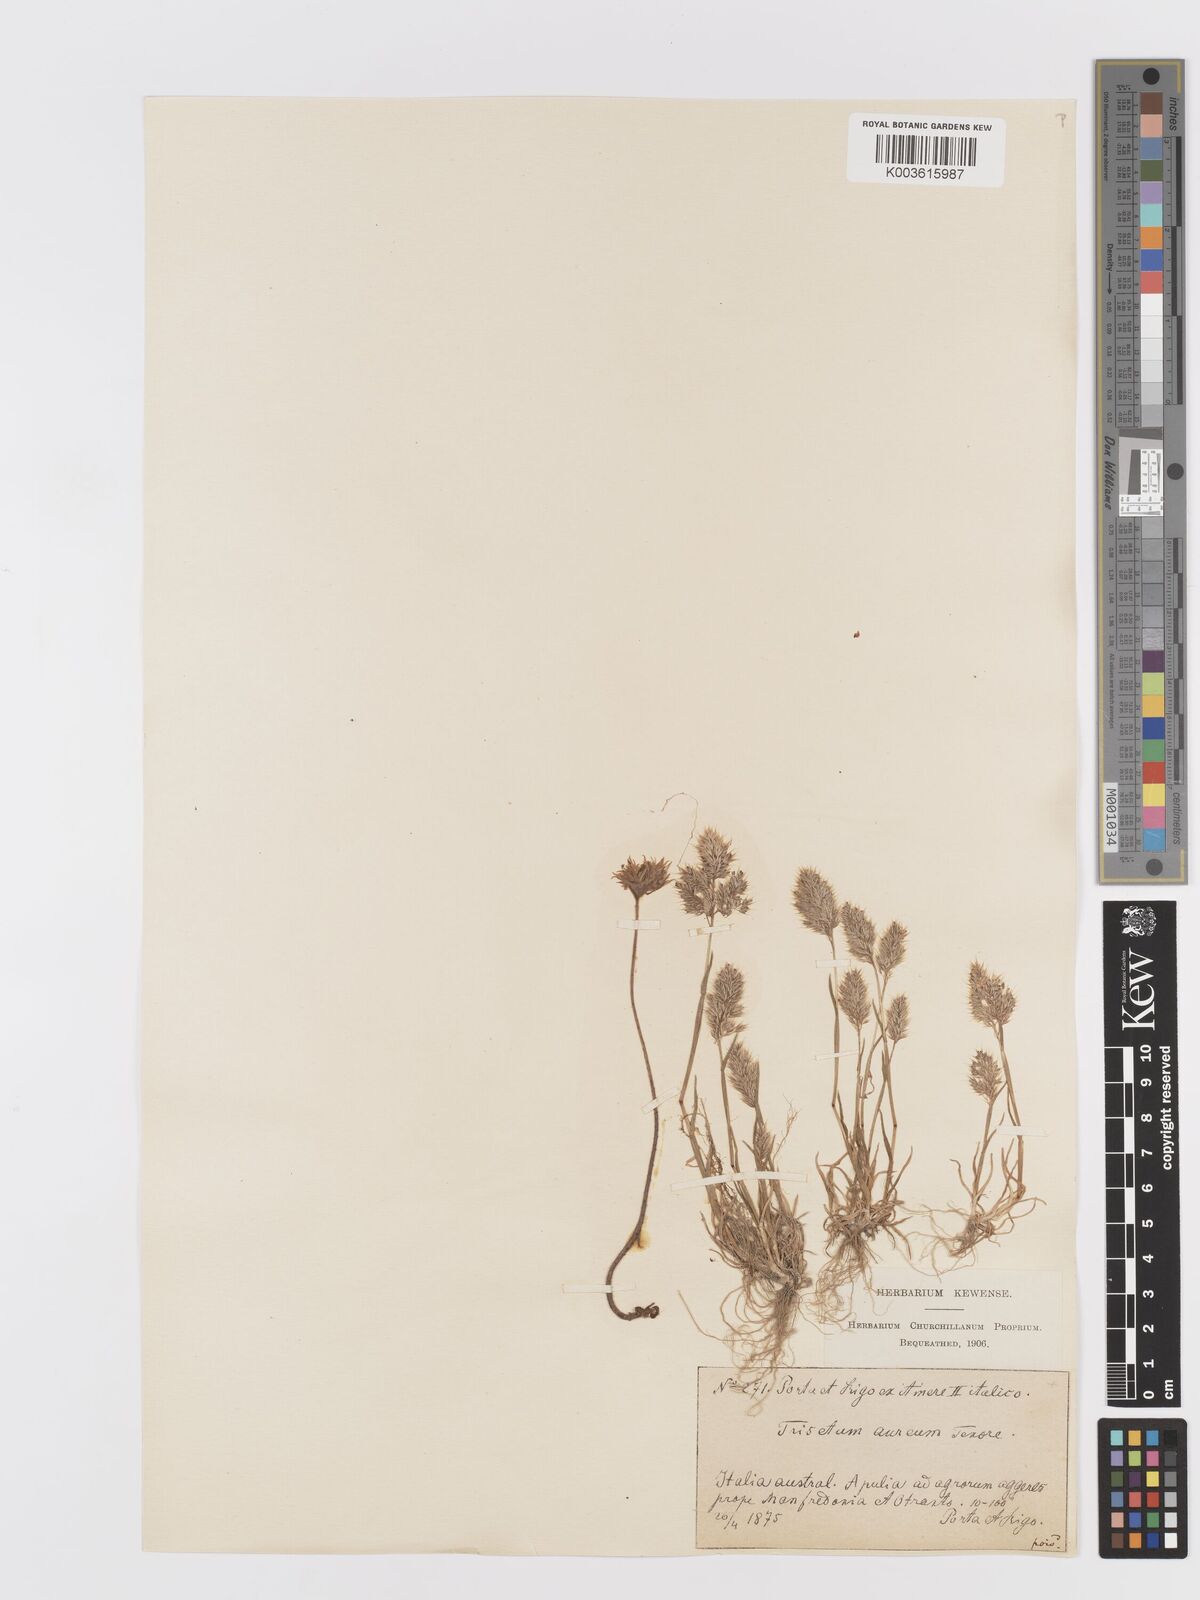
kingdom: Plantae
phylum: Tracheophyta
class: Liliopsida
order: Poales
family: Poaceae
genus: Trisetaria
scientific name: Trisetaria aurea
